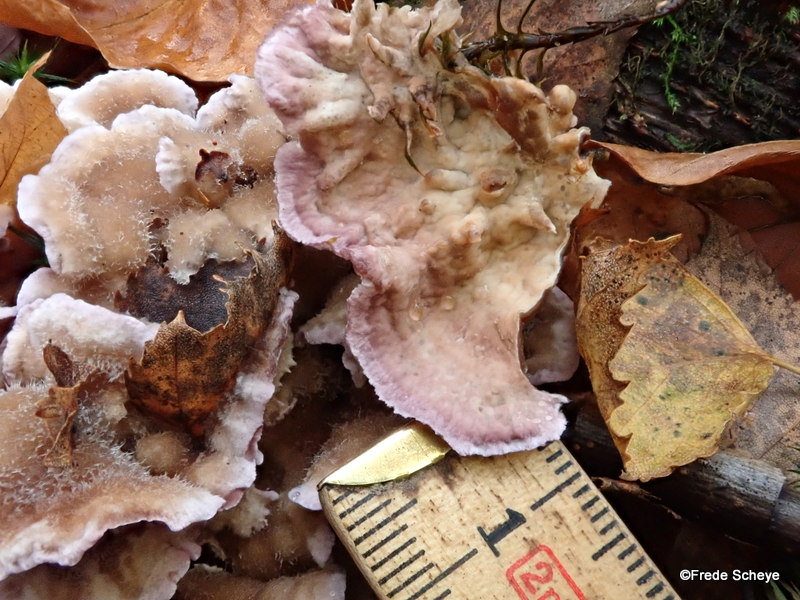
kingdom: Fungi
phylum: Basidiomycota
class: Agaricomycetes
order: Agaricales
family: Cyphellaceae
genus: Chondrostereum
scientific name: Chondrostereum purpureum
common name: purpurlædersvamp
